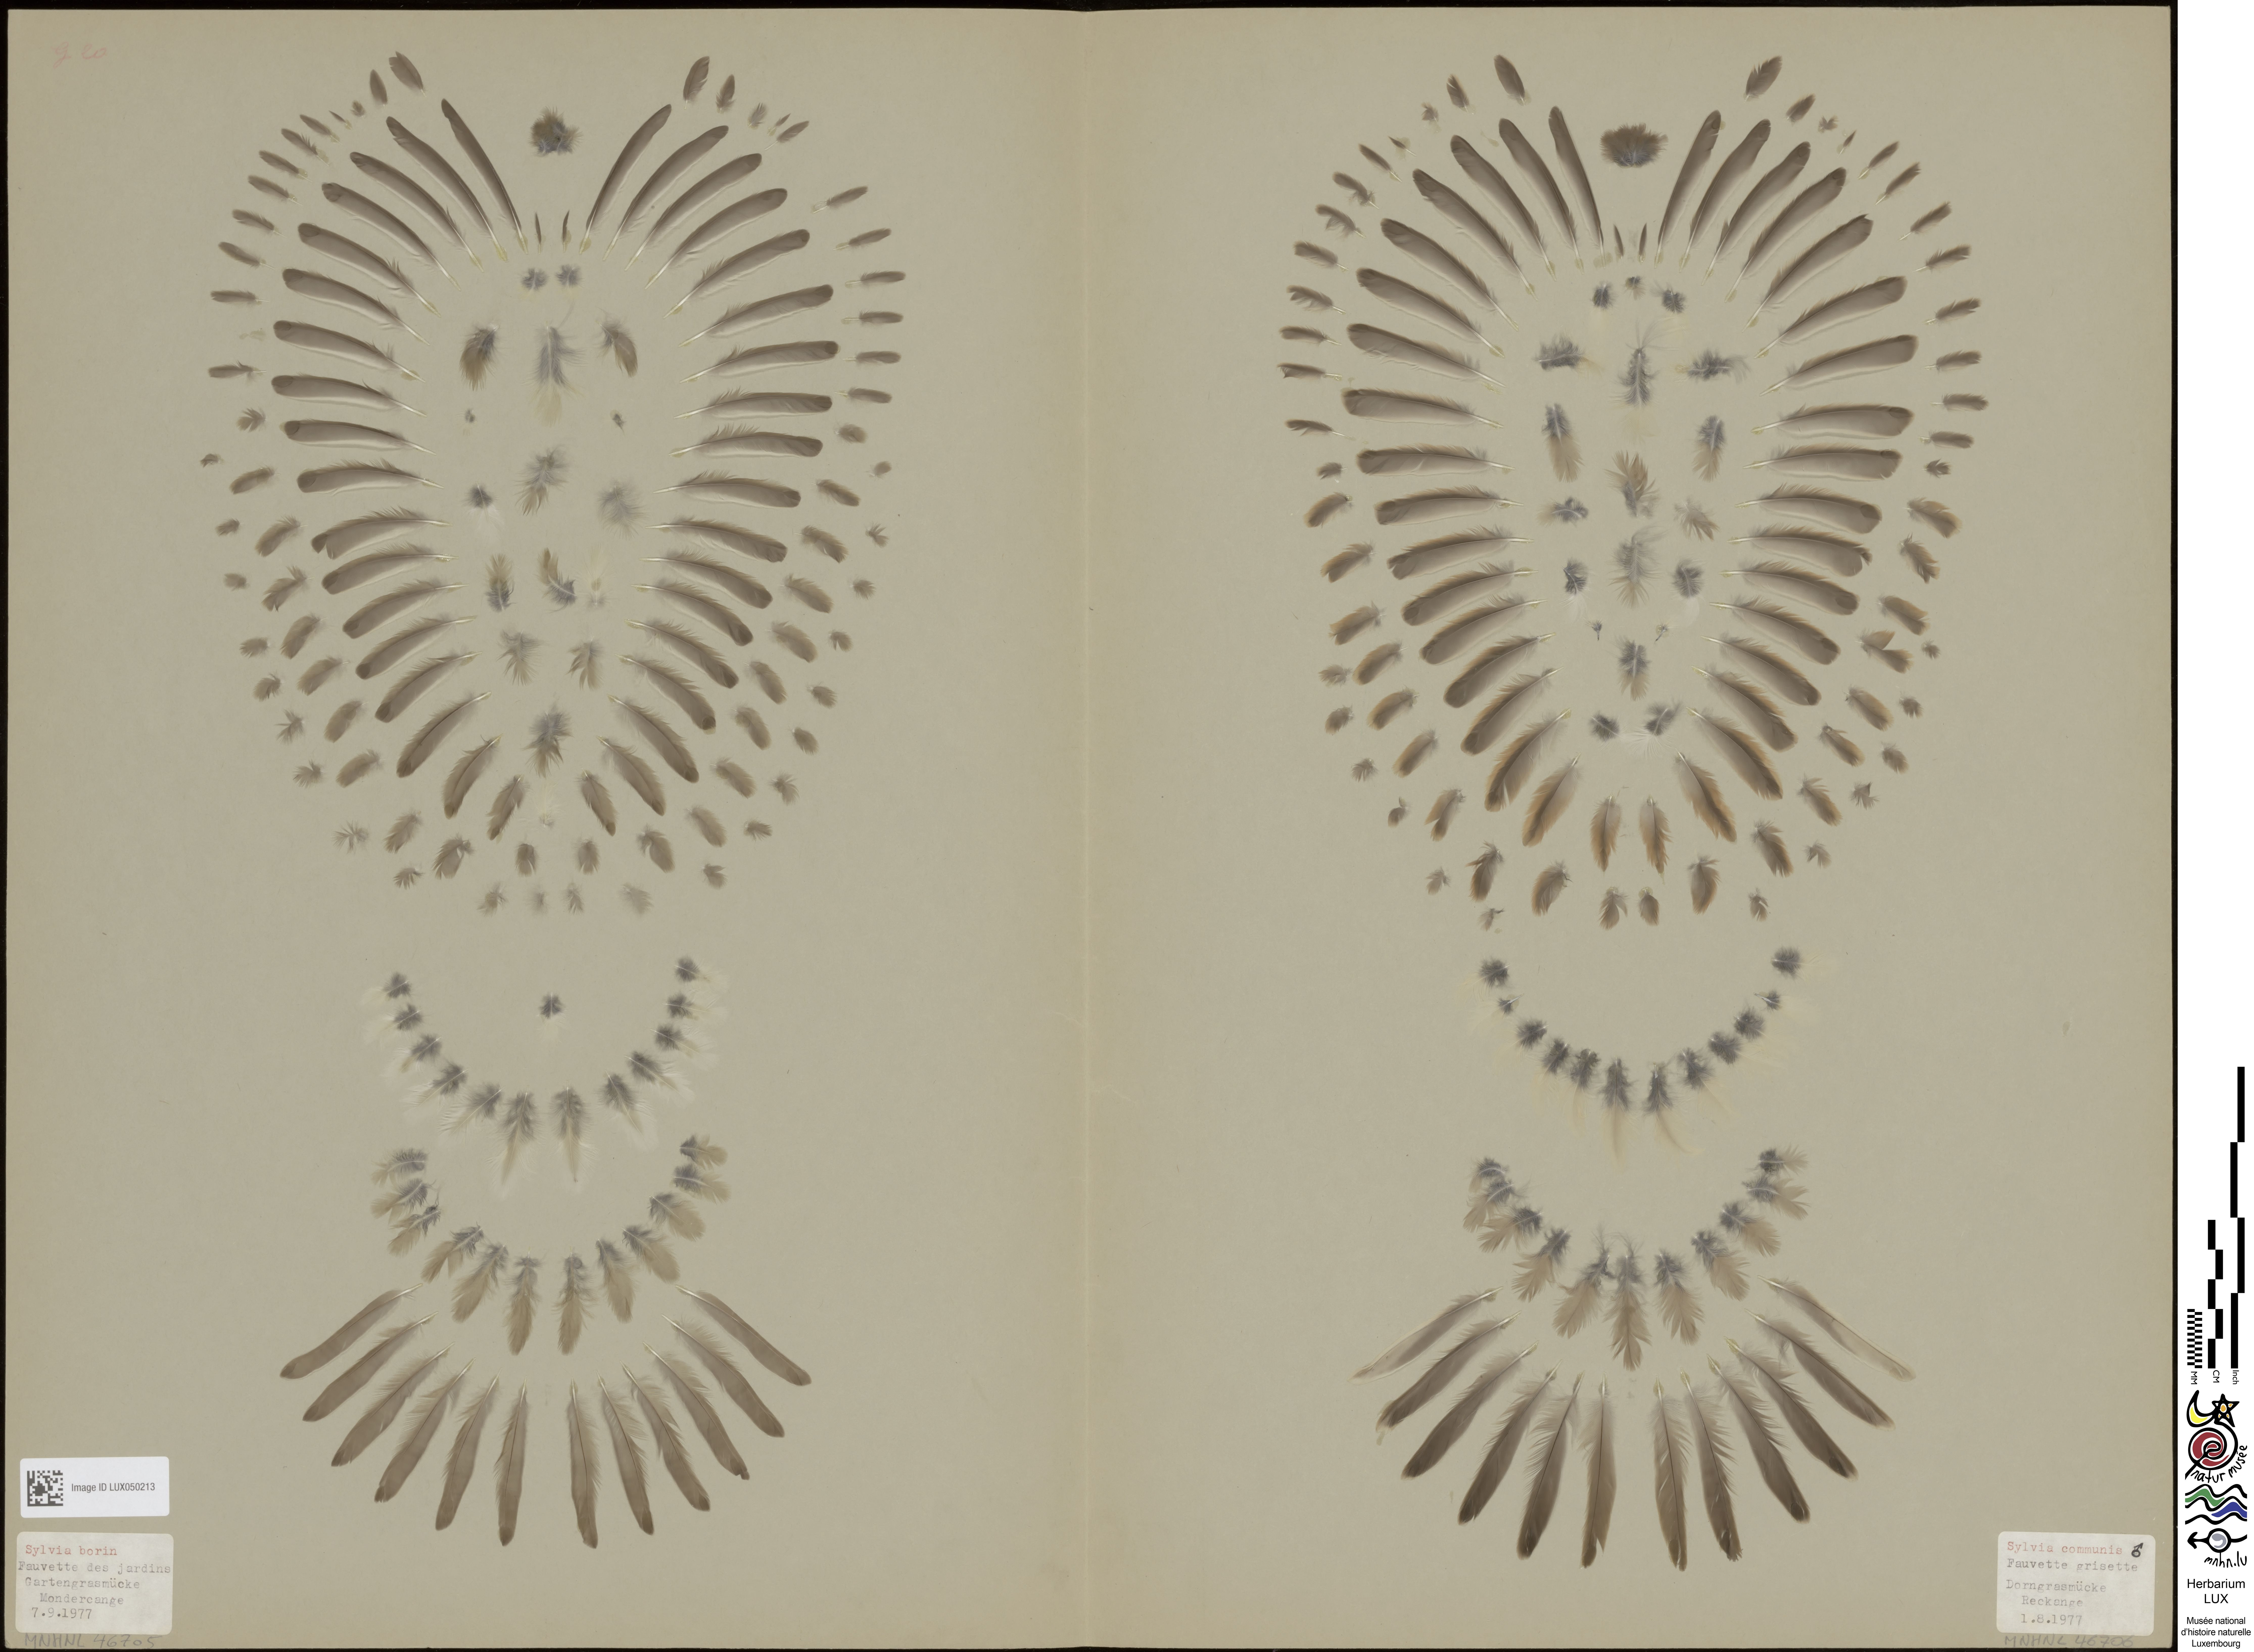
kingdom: Animalia
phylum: Chordata
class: Aves
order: Passeriformes
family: Sylviidae
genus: Sylvia
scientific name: Sylvia communis
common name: Common whitethroat
